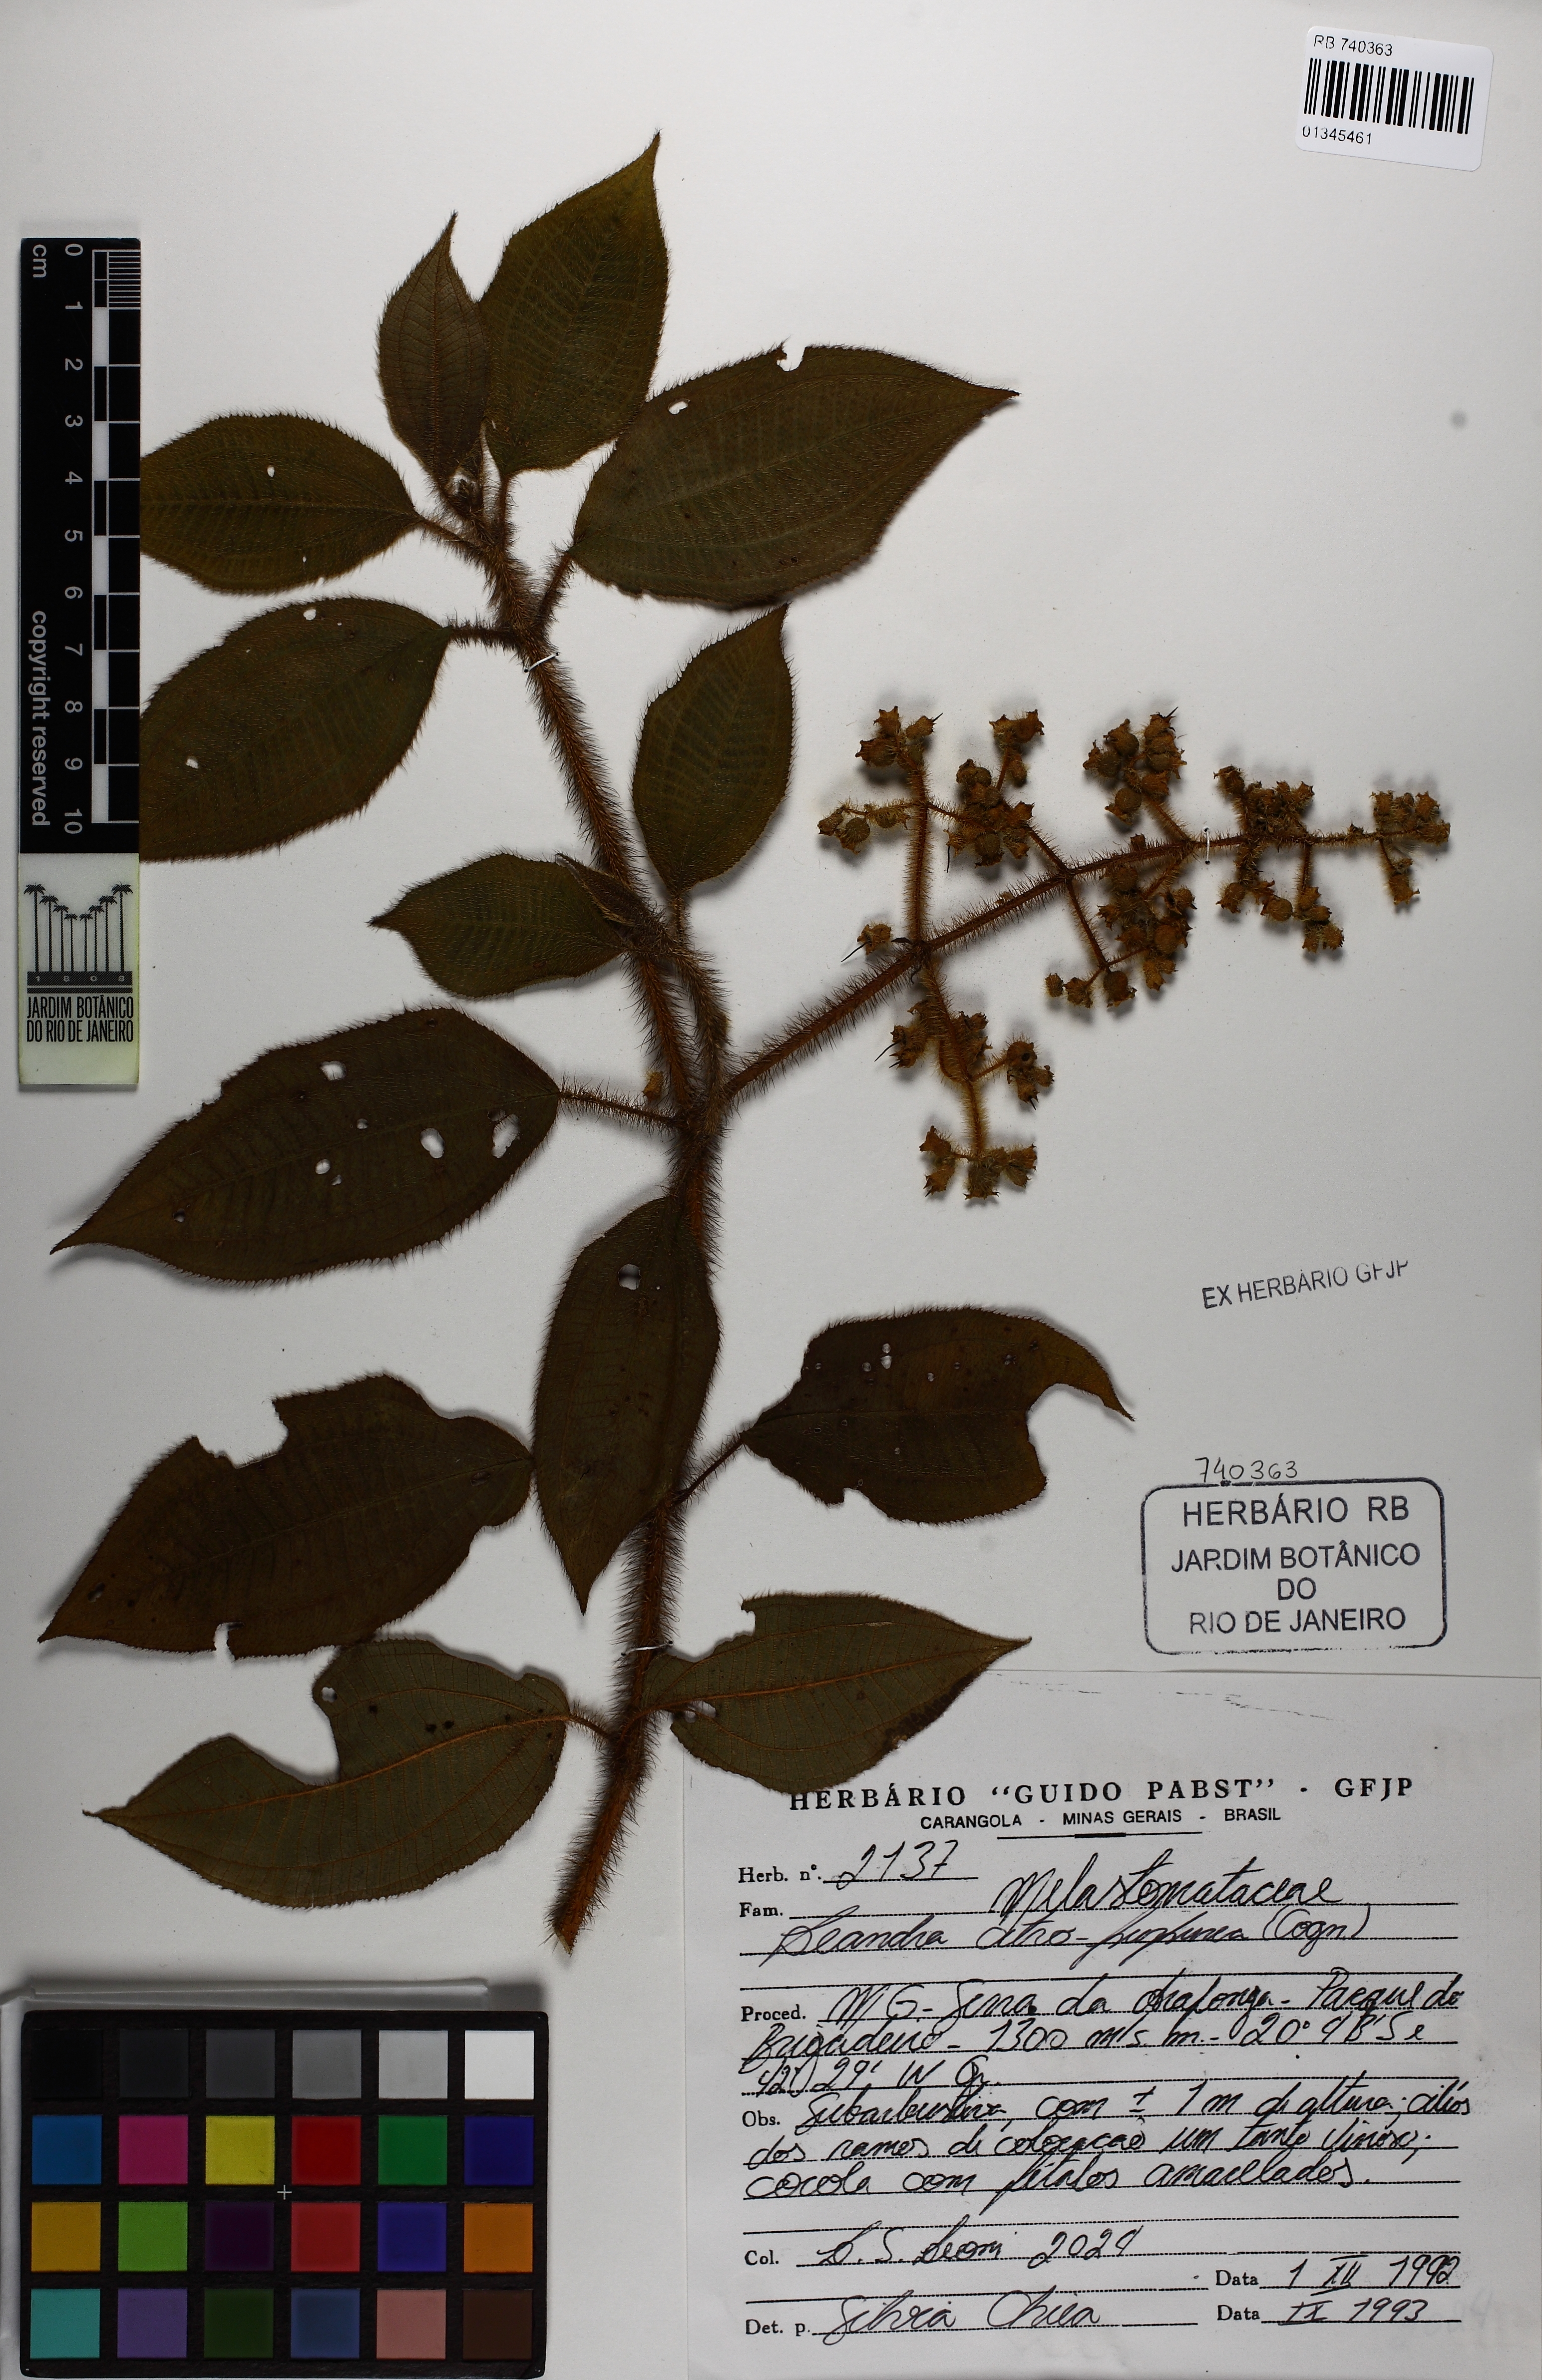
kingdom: Plantae
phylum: Tracheophyta
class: Magnoliopsida
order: Myrtales
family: Melastomataceae
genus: Miconia
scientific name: Miconia australis
